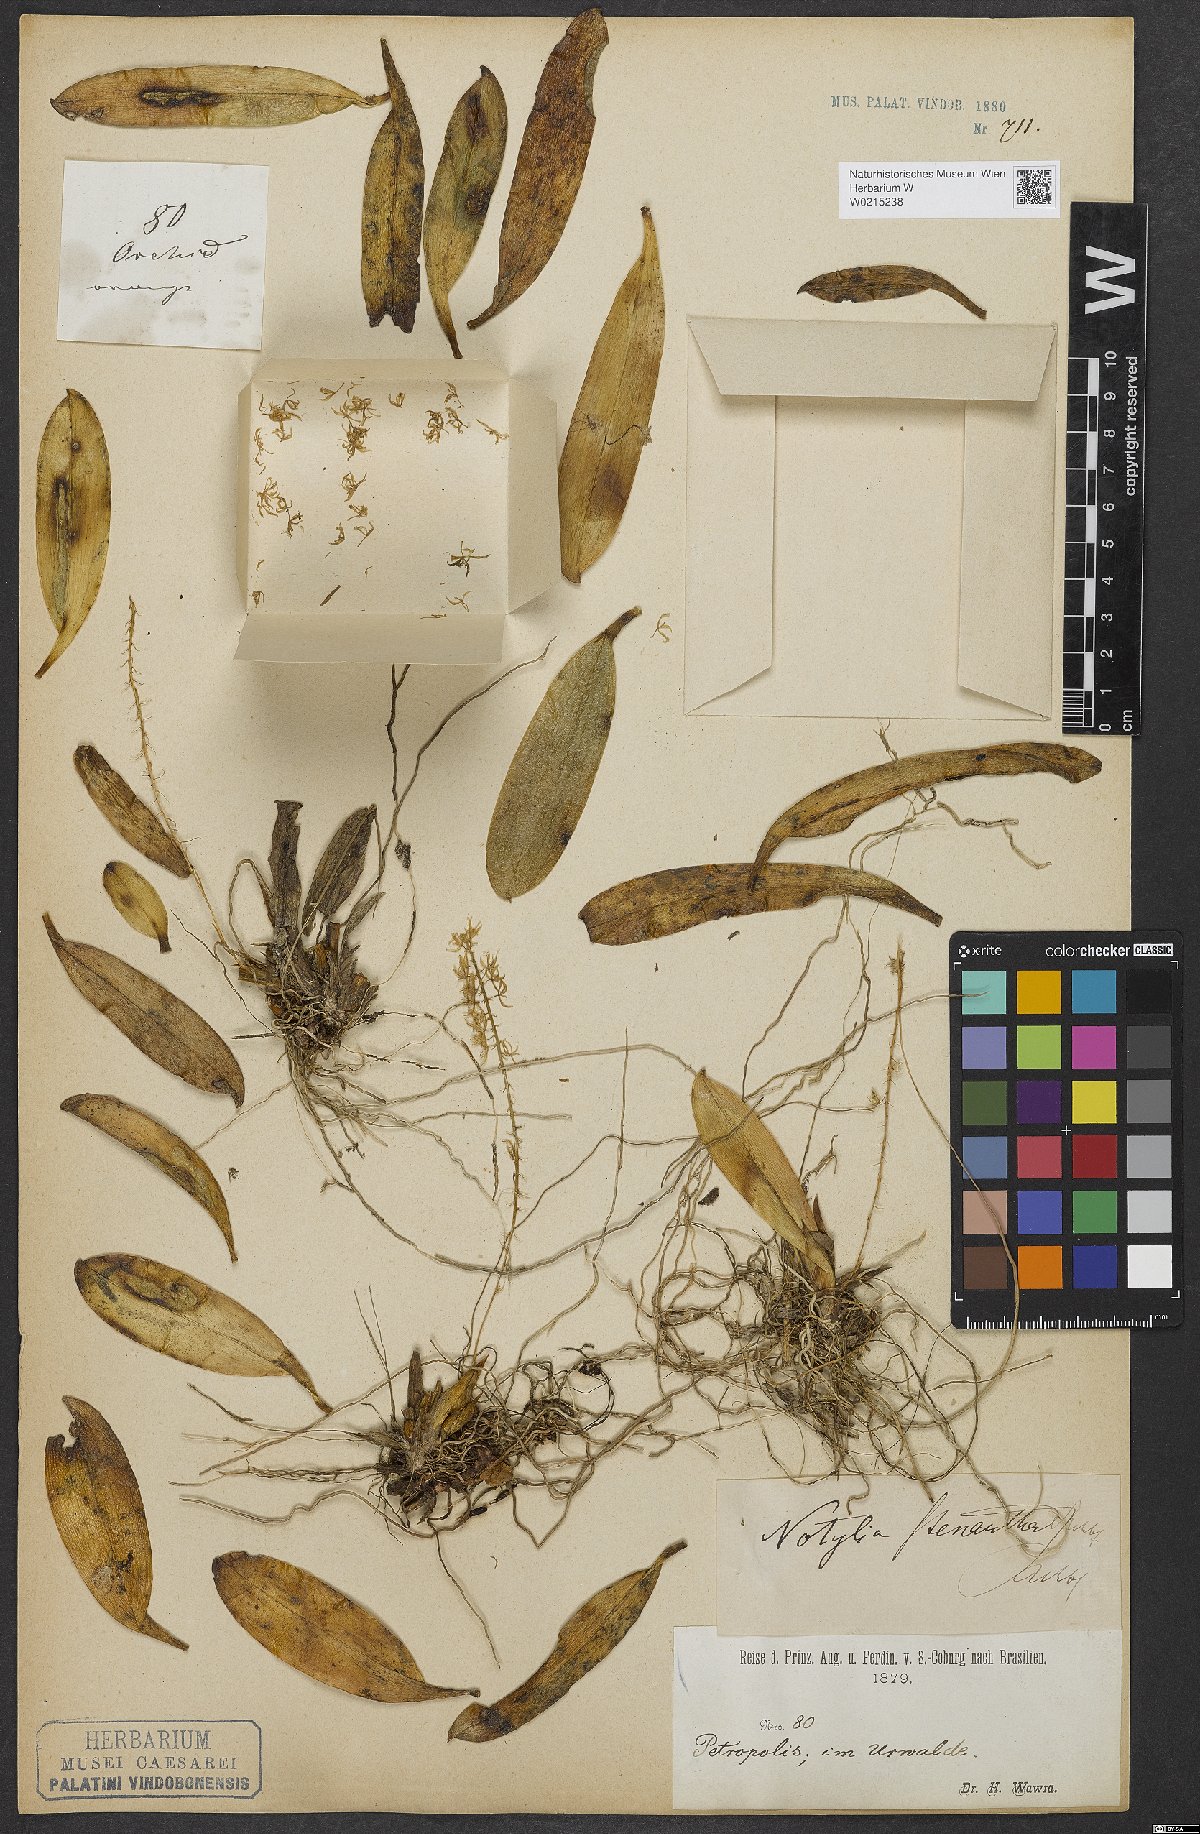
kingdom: Plantae
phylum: Tracheophyta
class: Liliopsida
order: Asparagales
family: Orchidaceae
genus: Notylia
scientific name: Notylia stenantha
